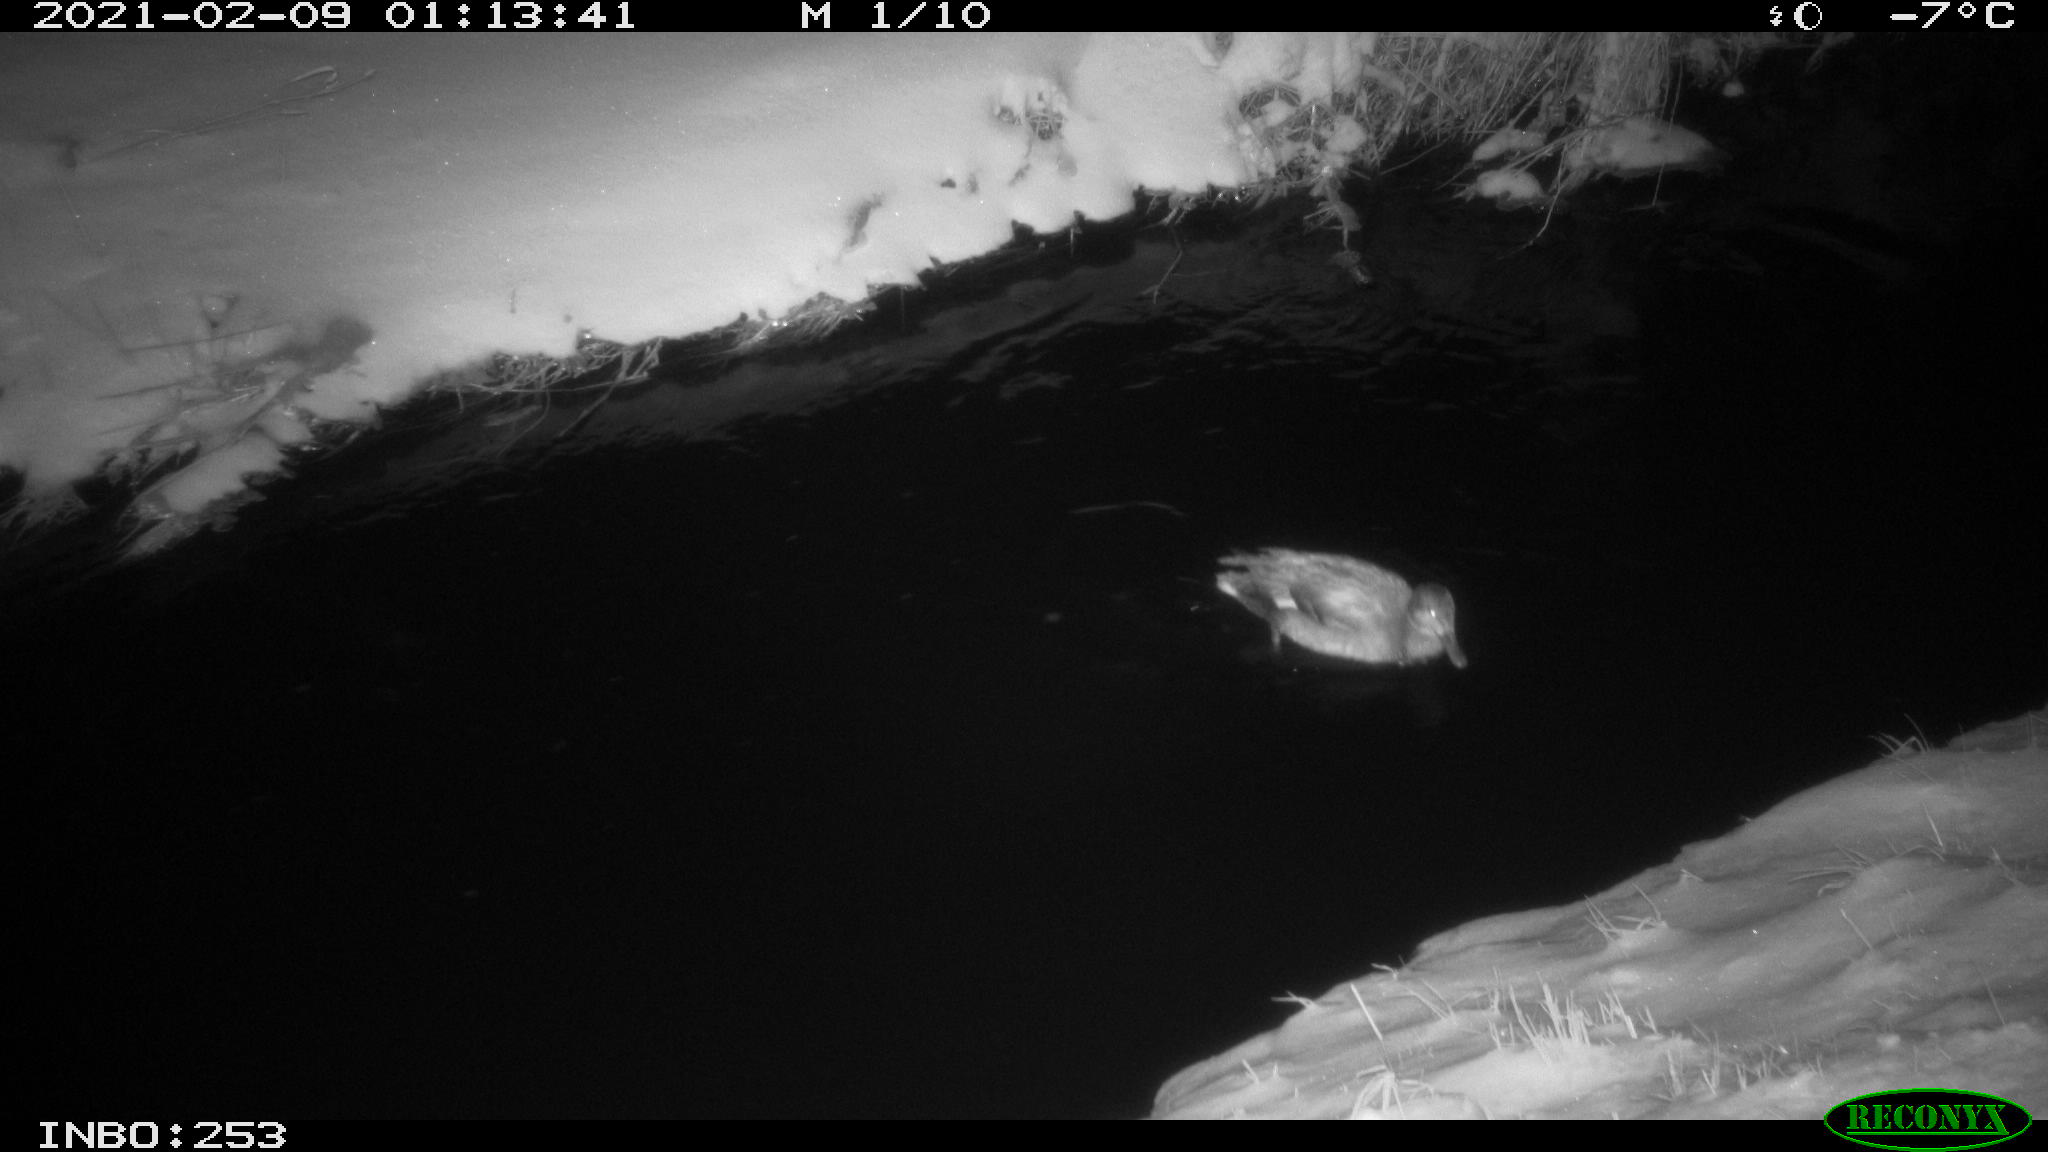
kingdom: Animalia
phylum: Chordata
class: Aves
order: Anseriformes
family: Anatidae
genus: Anas
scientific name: Anas platyrhynchos
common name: Mallard
